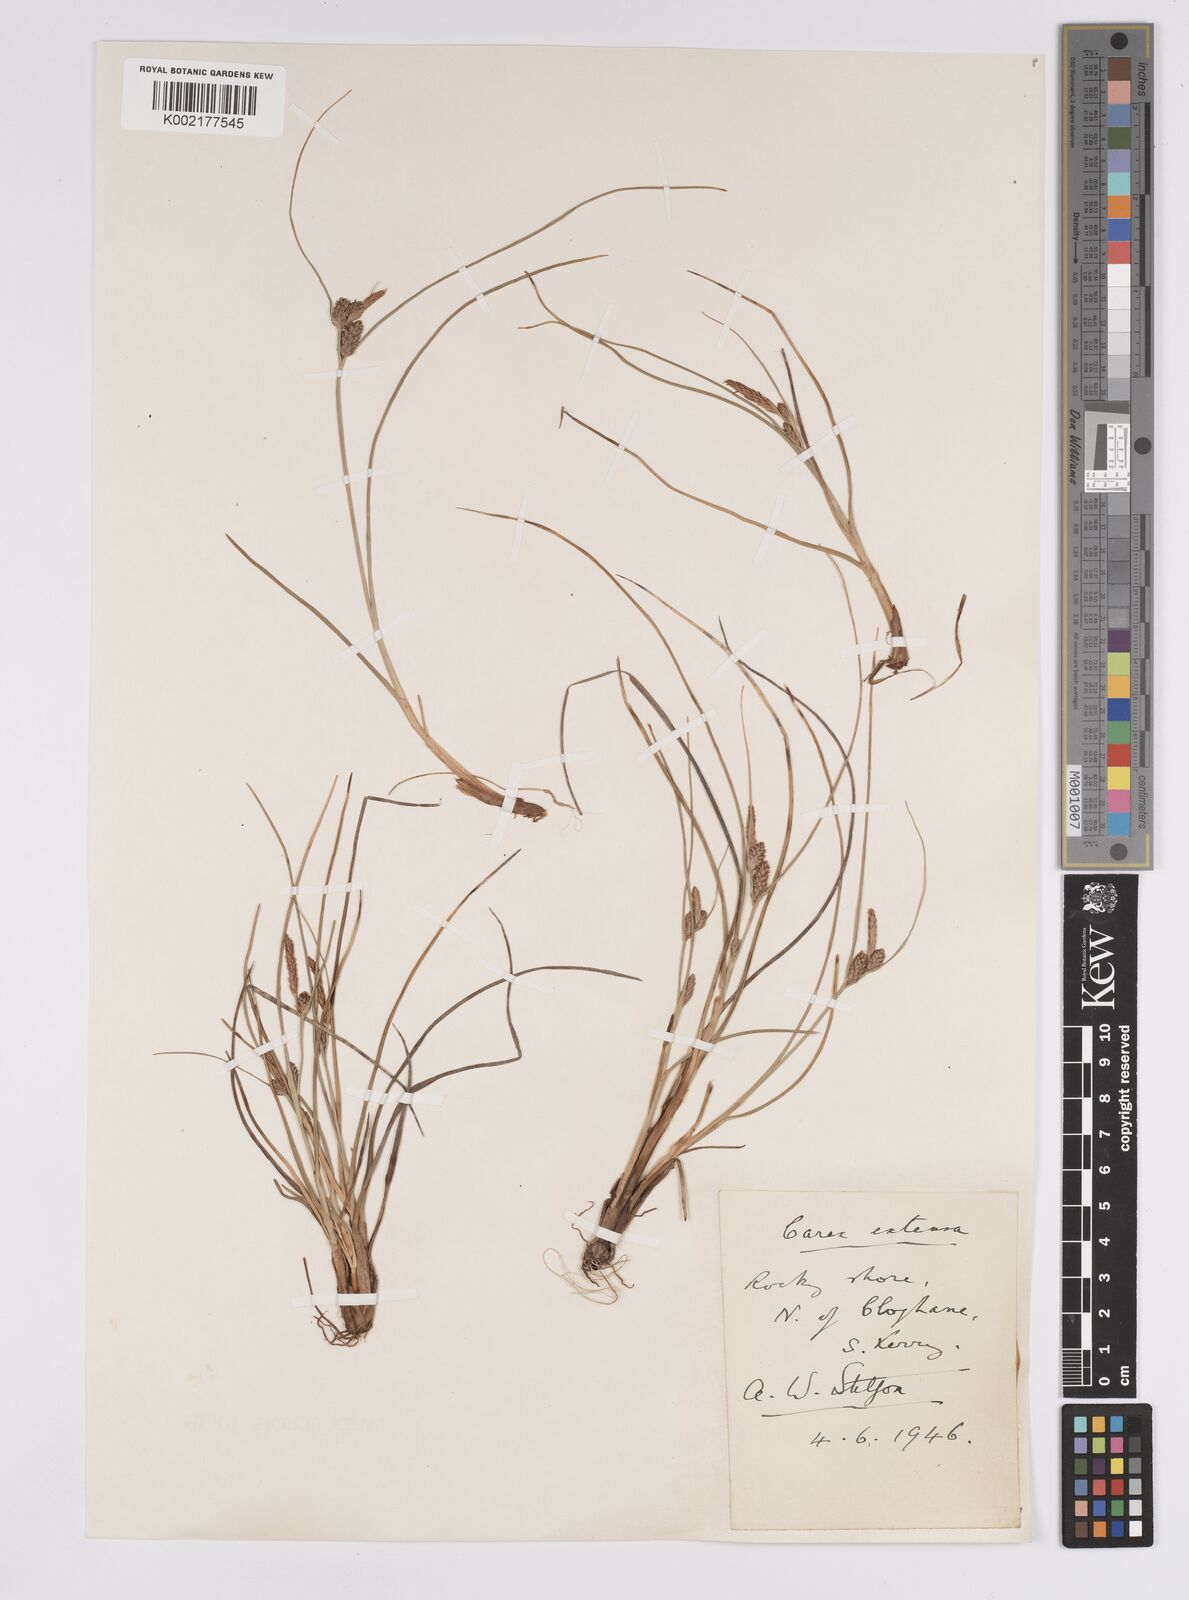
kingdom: Plantae
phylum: Tracheophyta
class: Liliopsida
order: Poales
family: Cyperaceae
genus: Carex
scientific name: Carex extensa
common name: Long-bracted sedge
